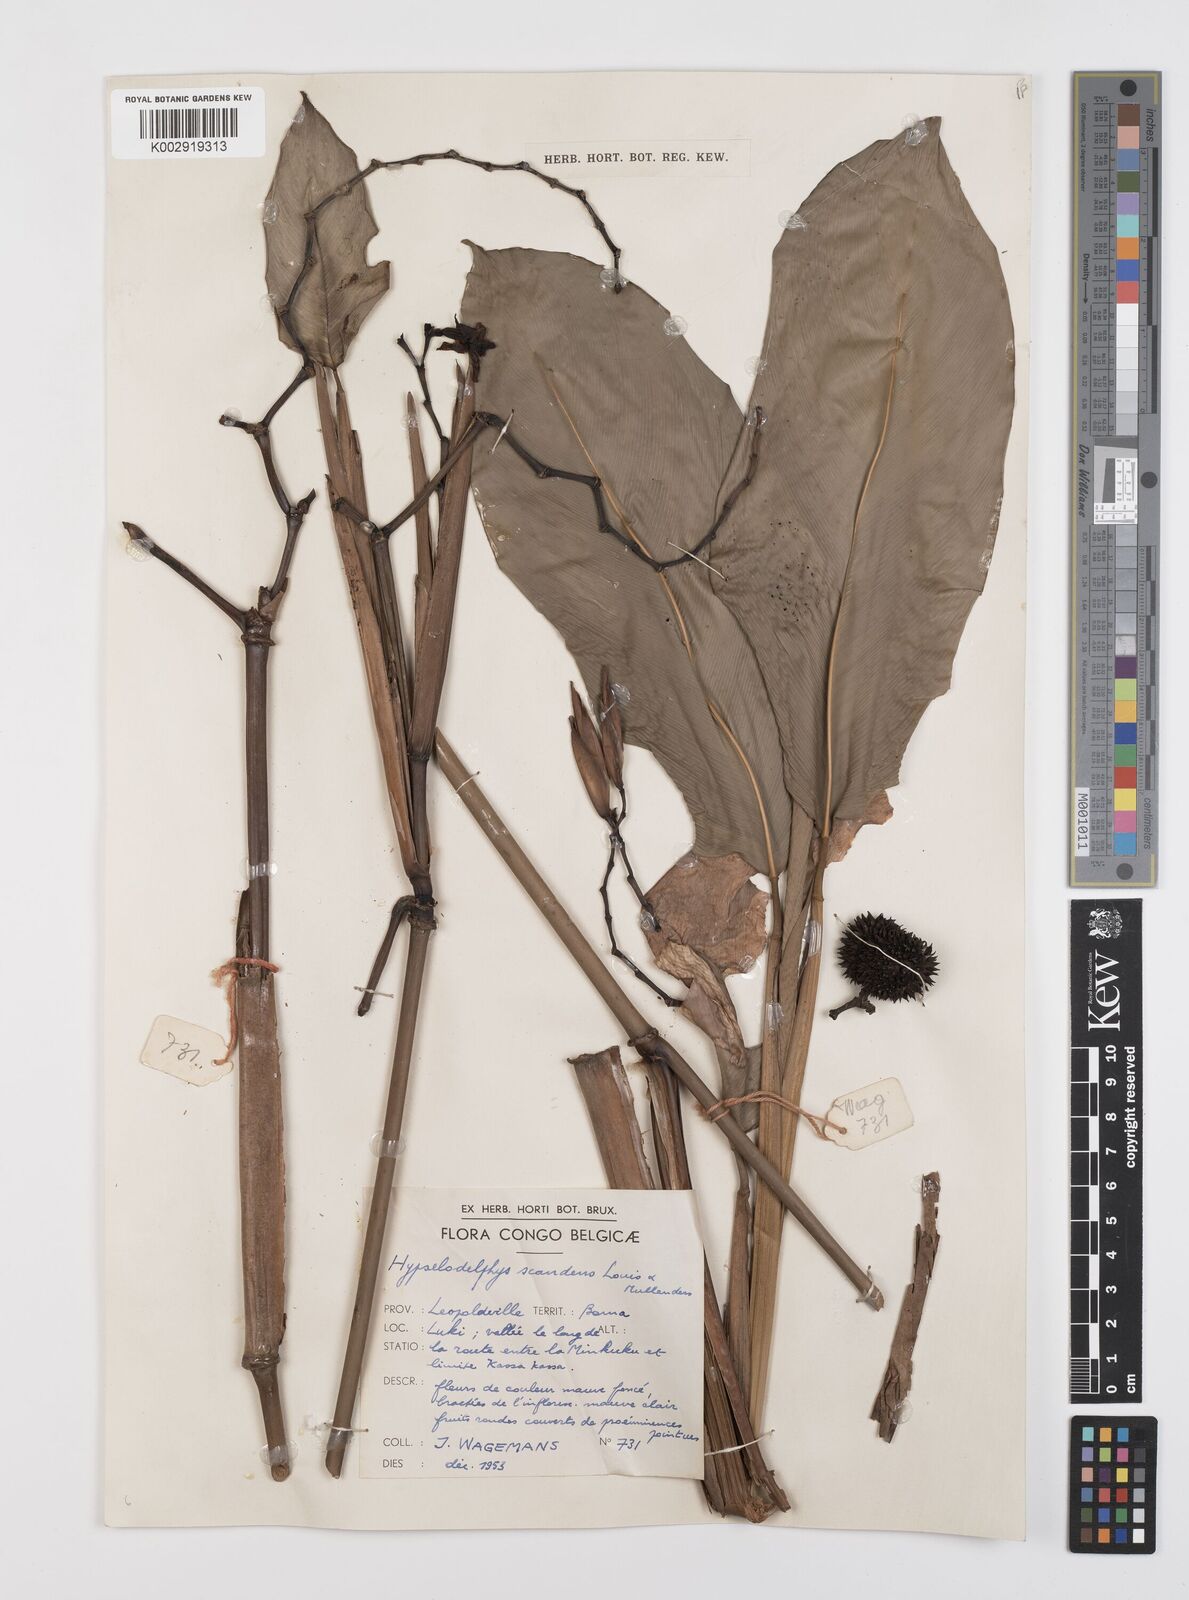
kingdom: Plantae
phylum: Tracheophyta
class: Liliopsida
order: Zingiberales
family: Marantaceae
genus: Hypselodelphys
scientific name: Hypselodelphys scandens
